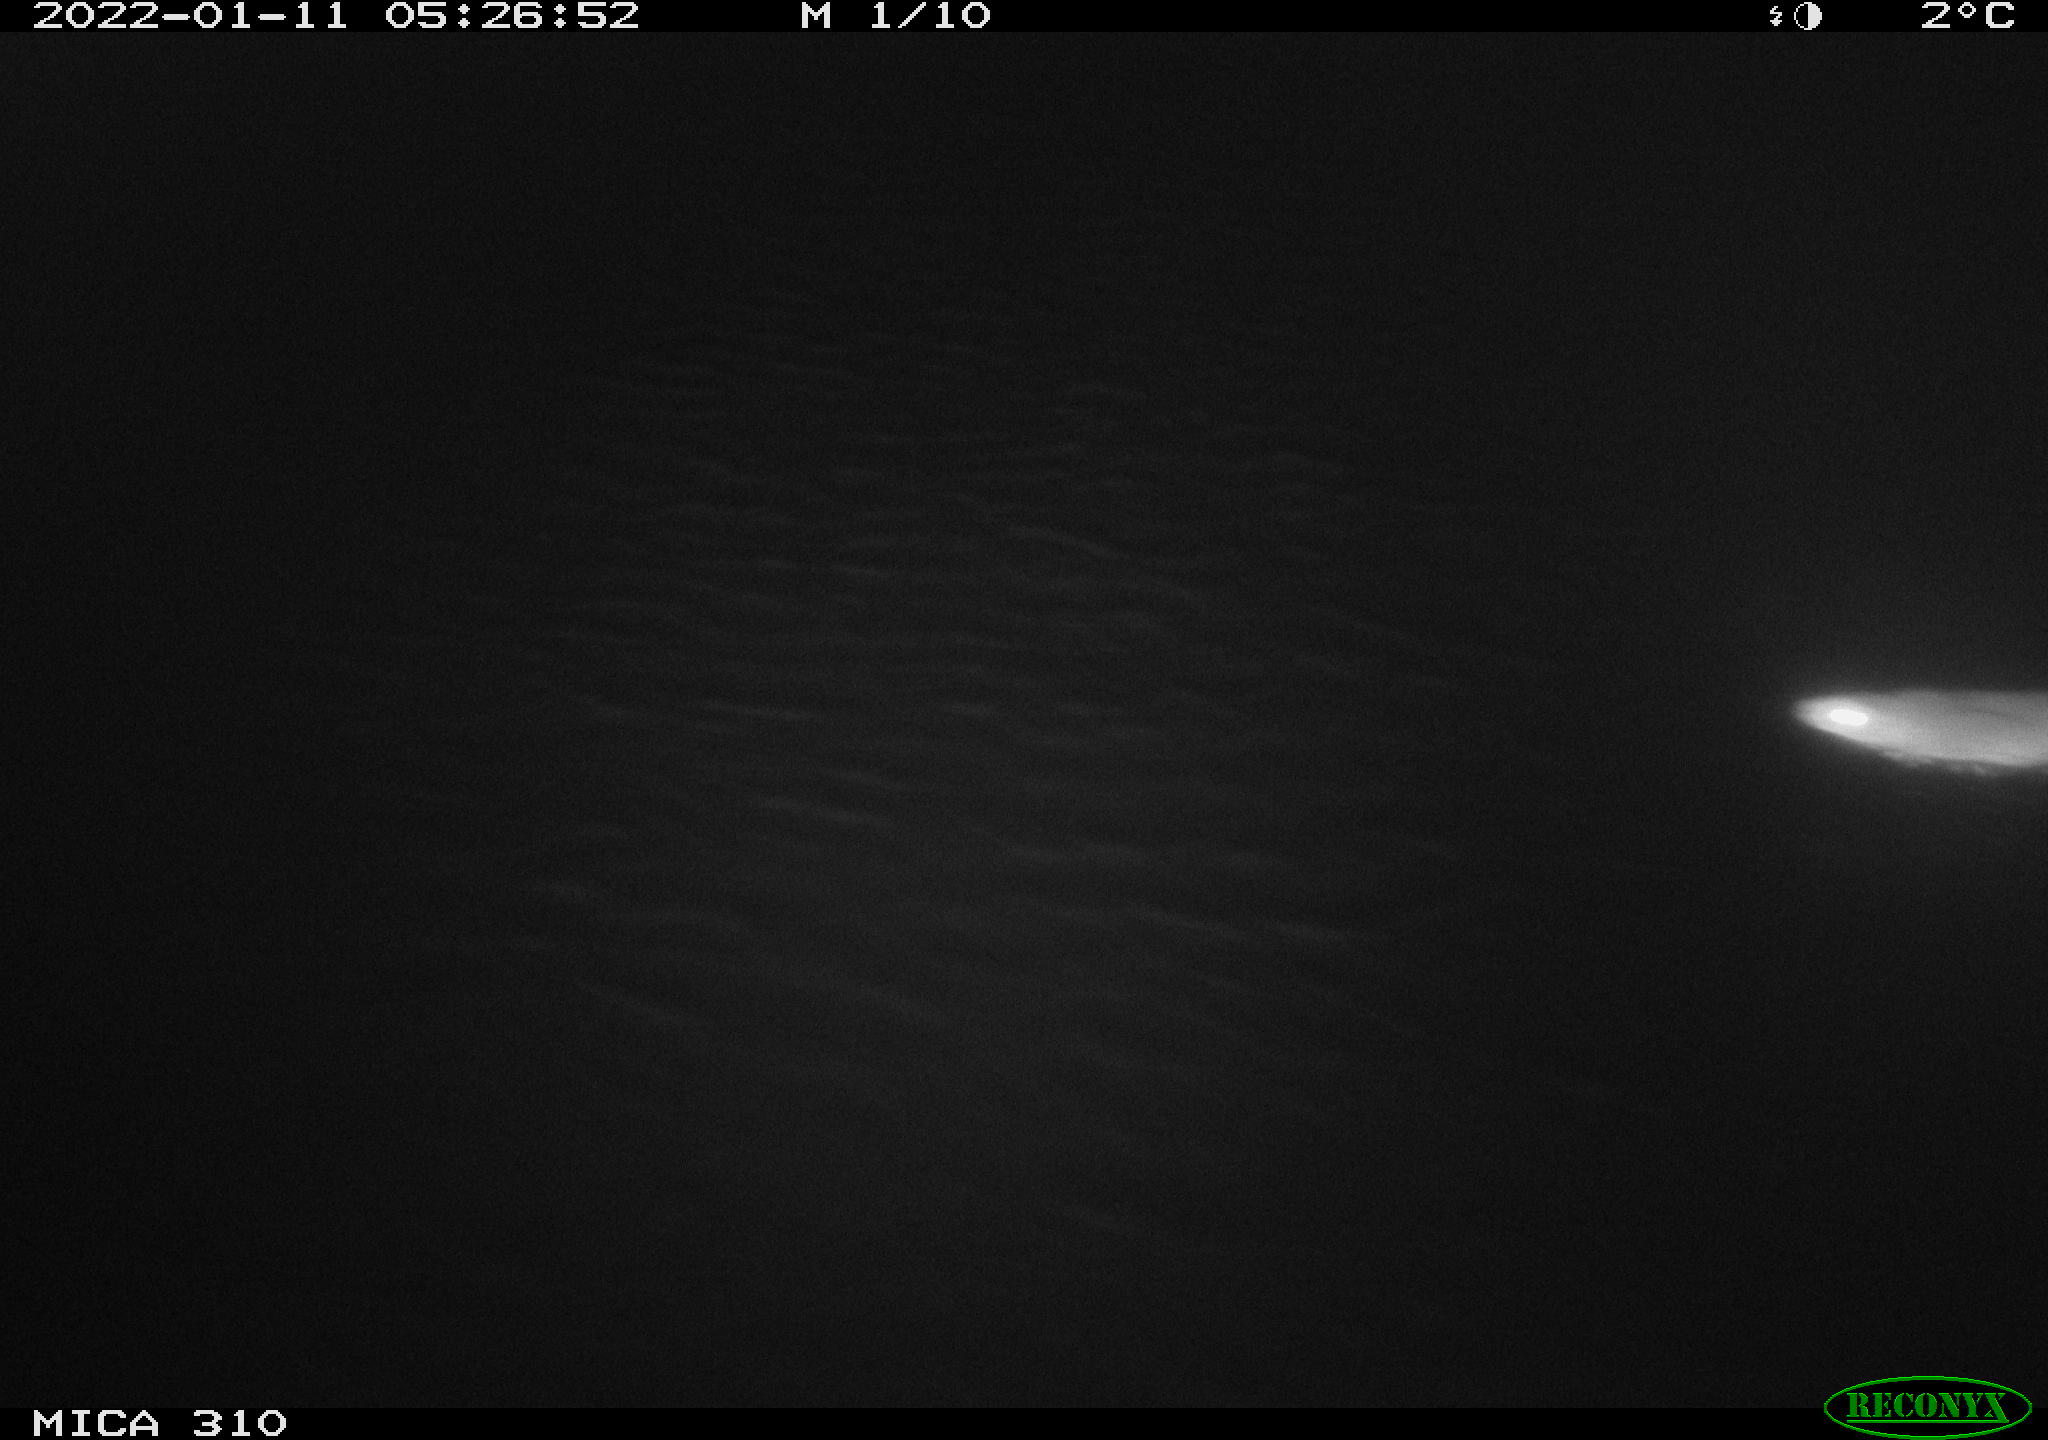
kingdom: Animalia
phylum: Chordata
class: Mammalia
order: Rodentia
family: Muridae
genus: Rattus
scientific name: Rattus norvegicus
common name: Brown rat
